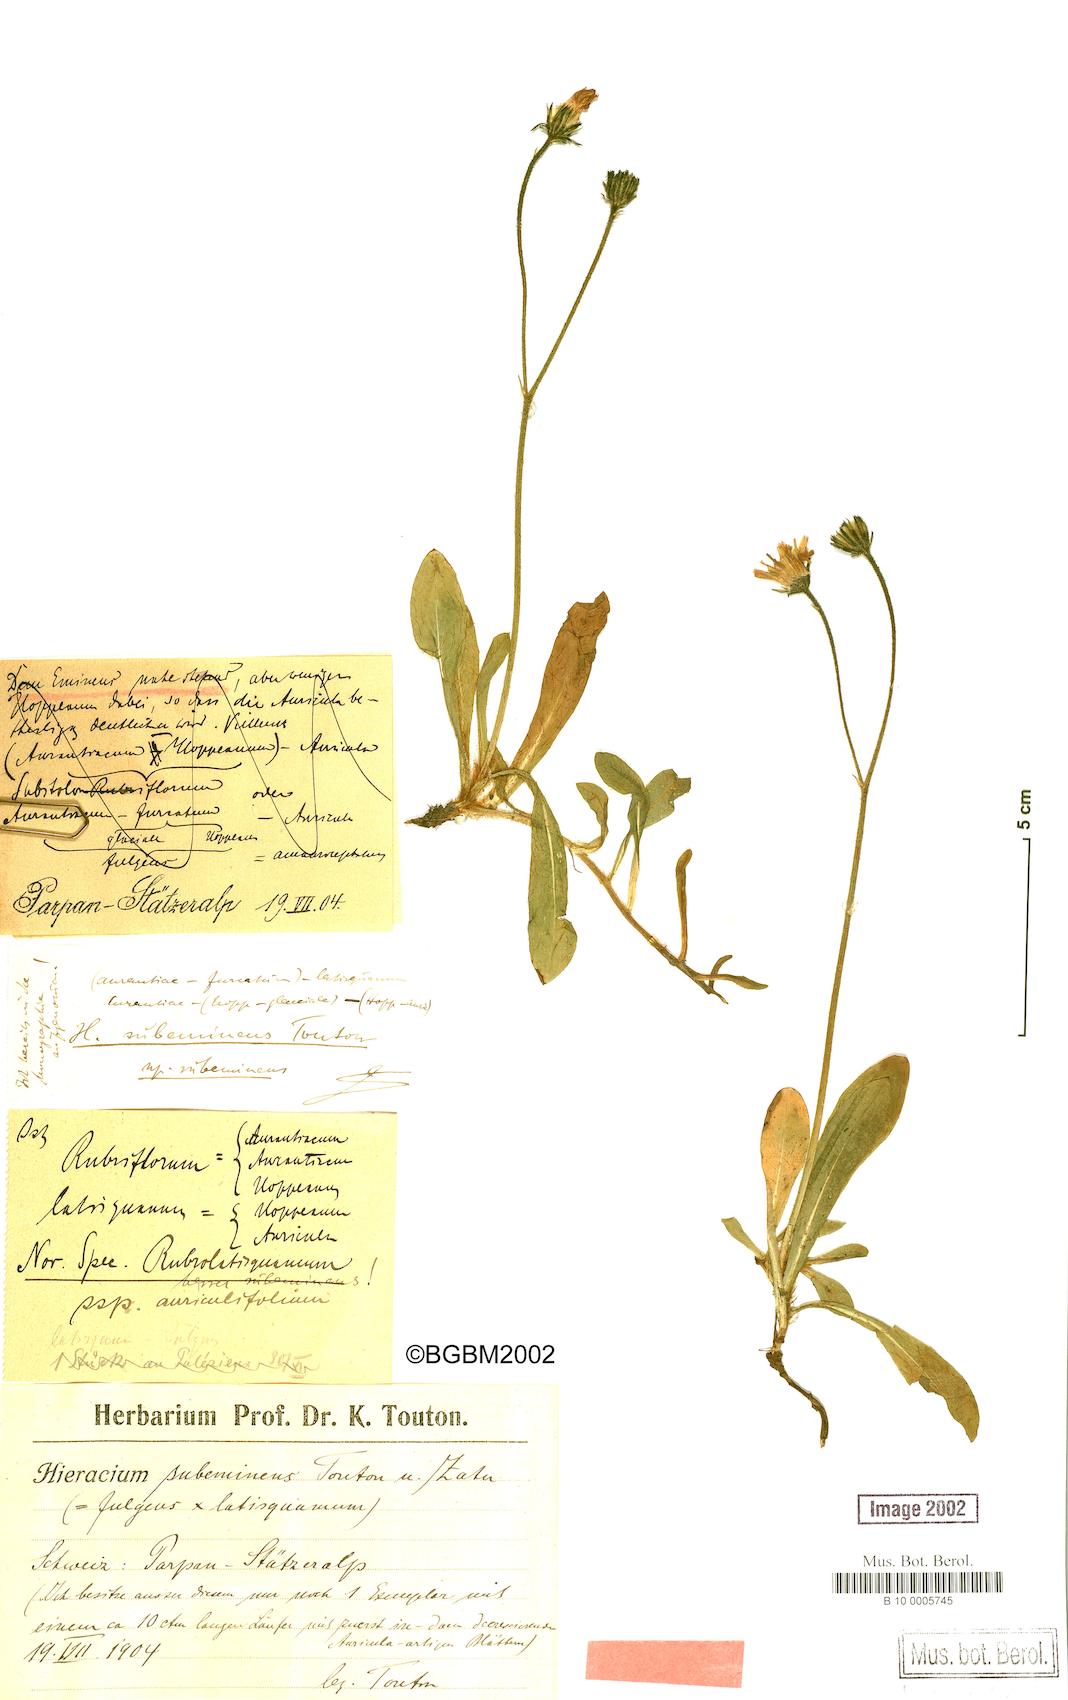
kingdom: Plantae
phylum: Tracheophyta
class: Magnoliopsida
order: Asterales
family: Asteraceae
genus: Pilosella
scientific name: Pilosella amaurocephala
